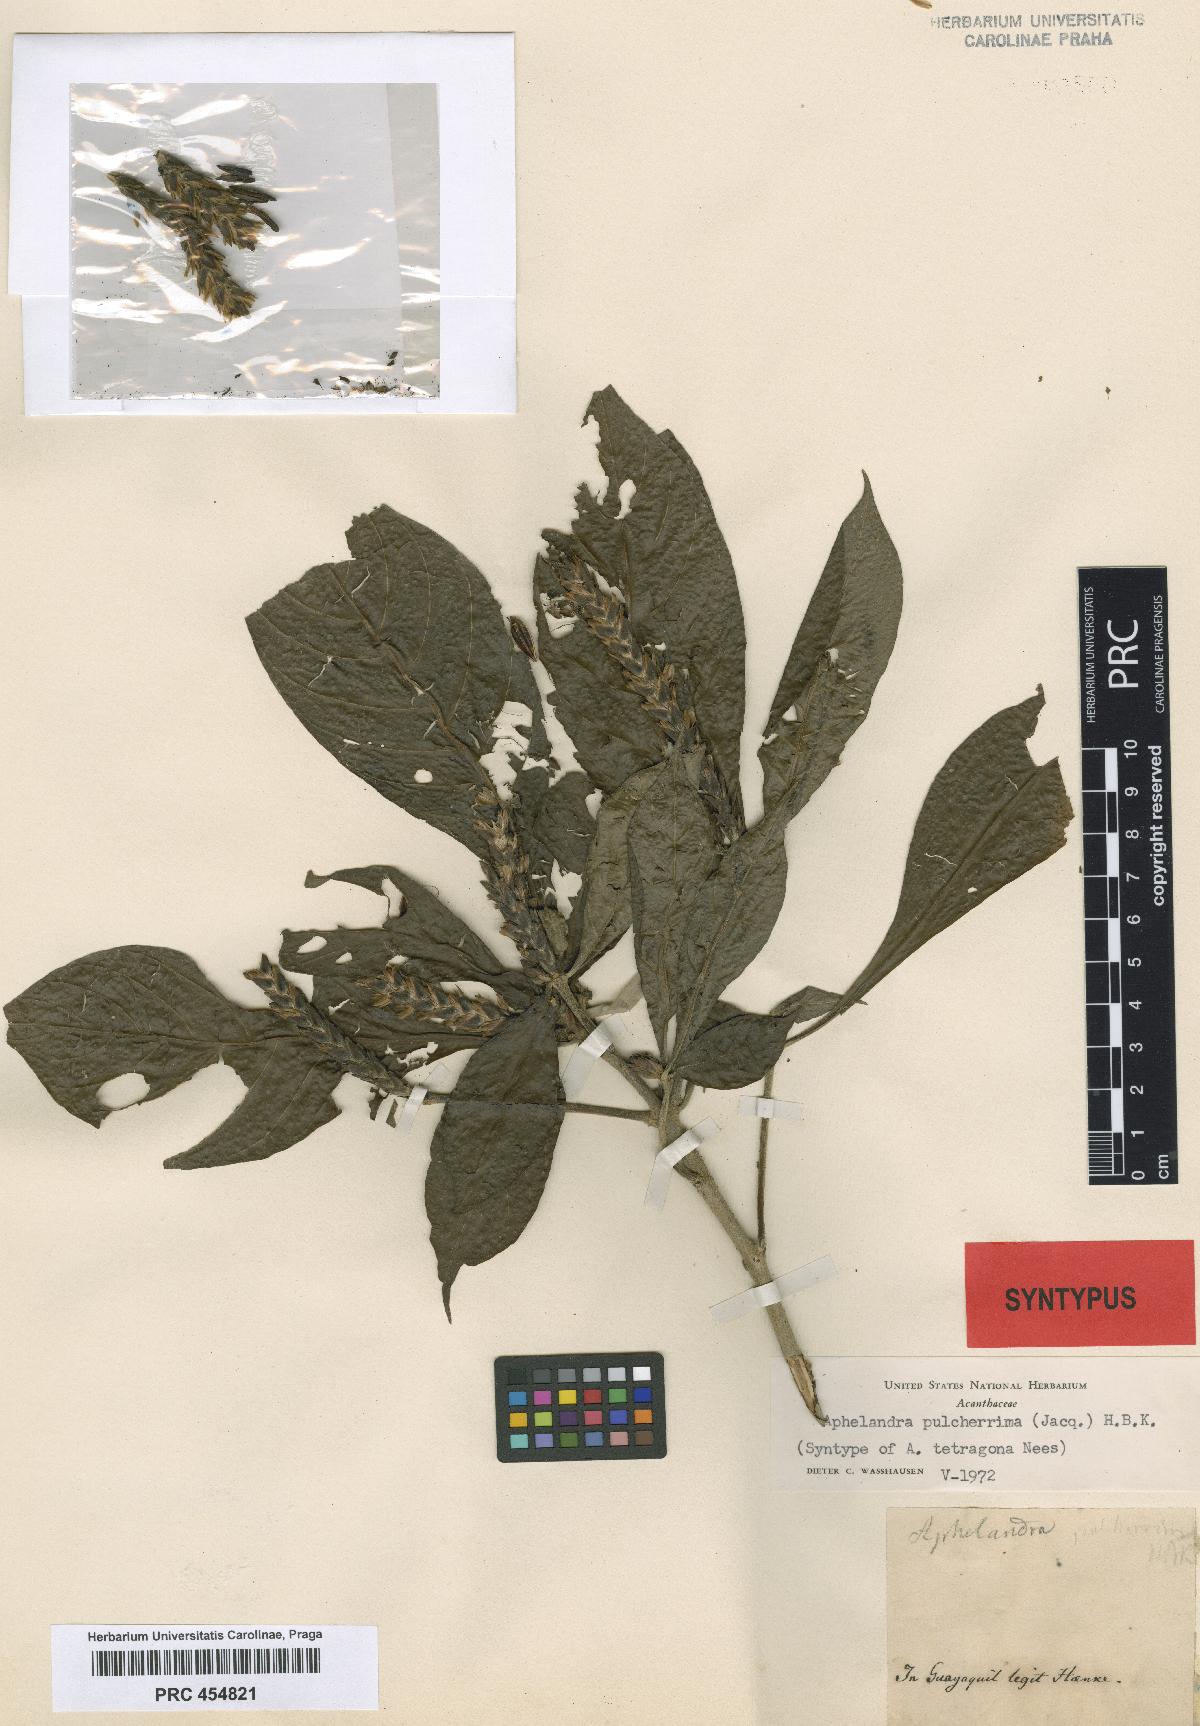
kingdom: Plantae
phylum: Tracheophyta
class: Magnoliopsida
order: Lamiales
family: Acanthaceae
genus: Aphelandra
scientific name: Aphelandra arborea
